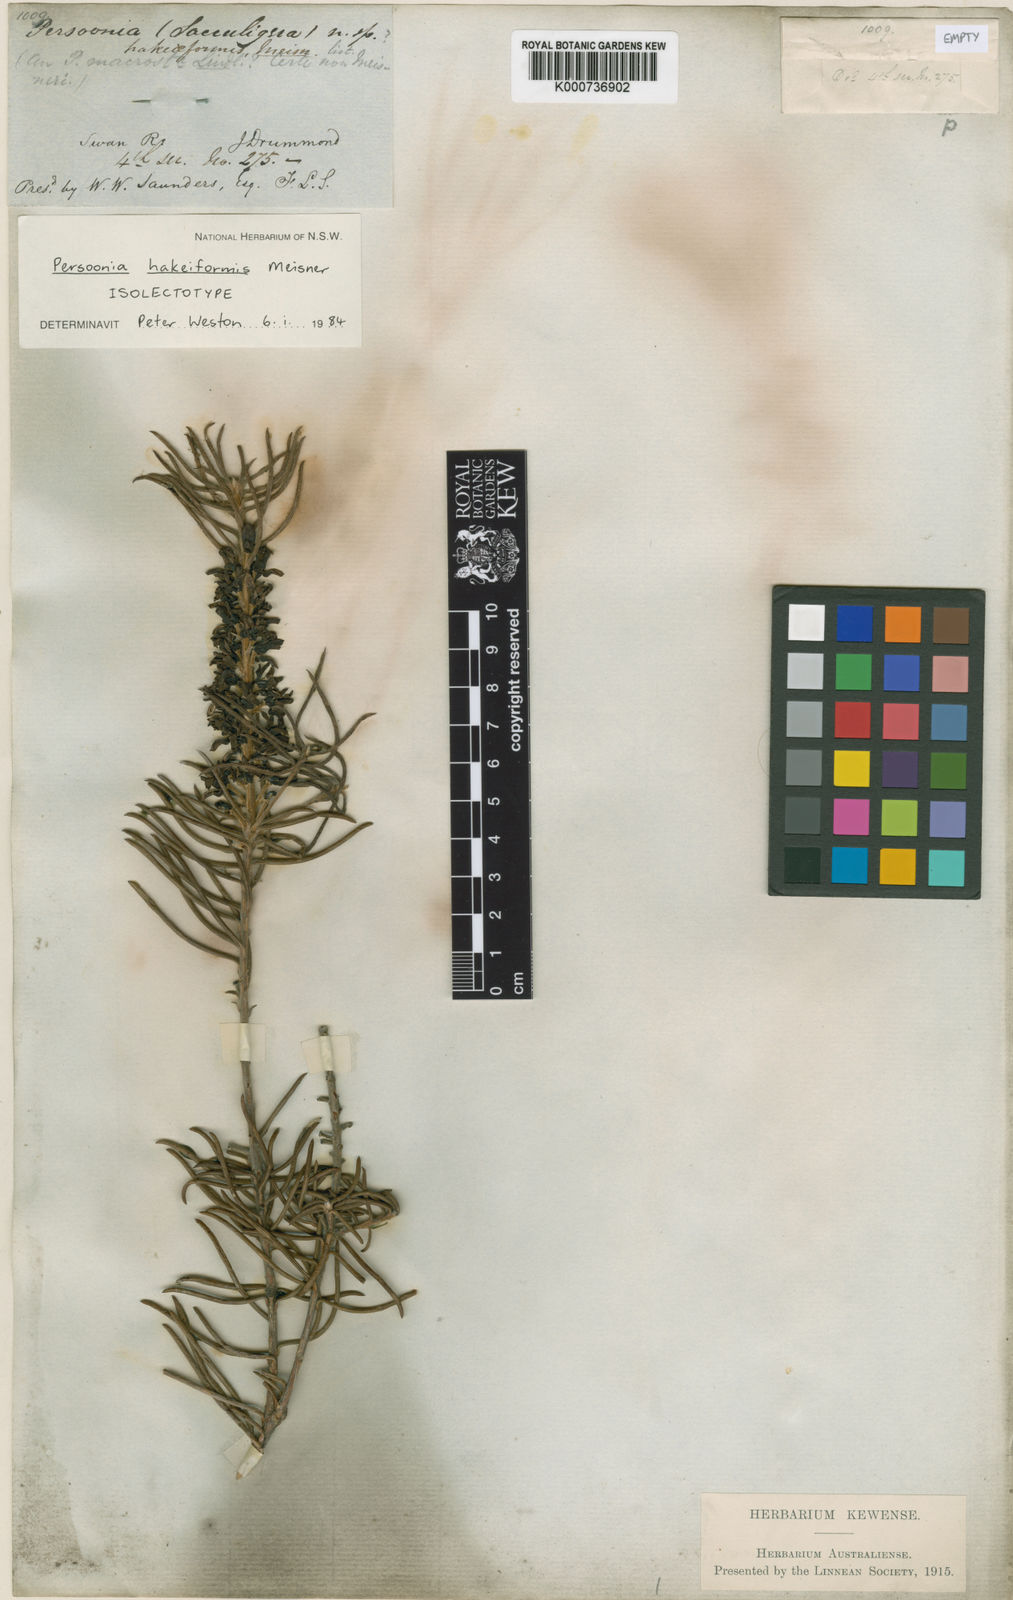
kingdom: Plantae
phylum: Tracheophyta
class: Magnoliopsida
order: Proteales
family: Proteaceae
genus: Persoonia
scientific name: Persoonia hakeiformis
